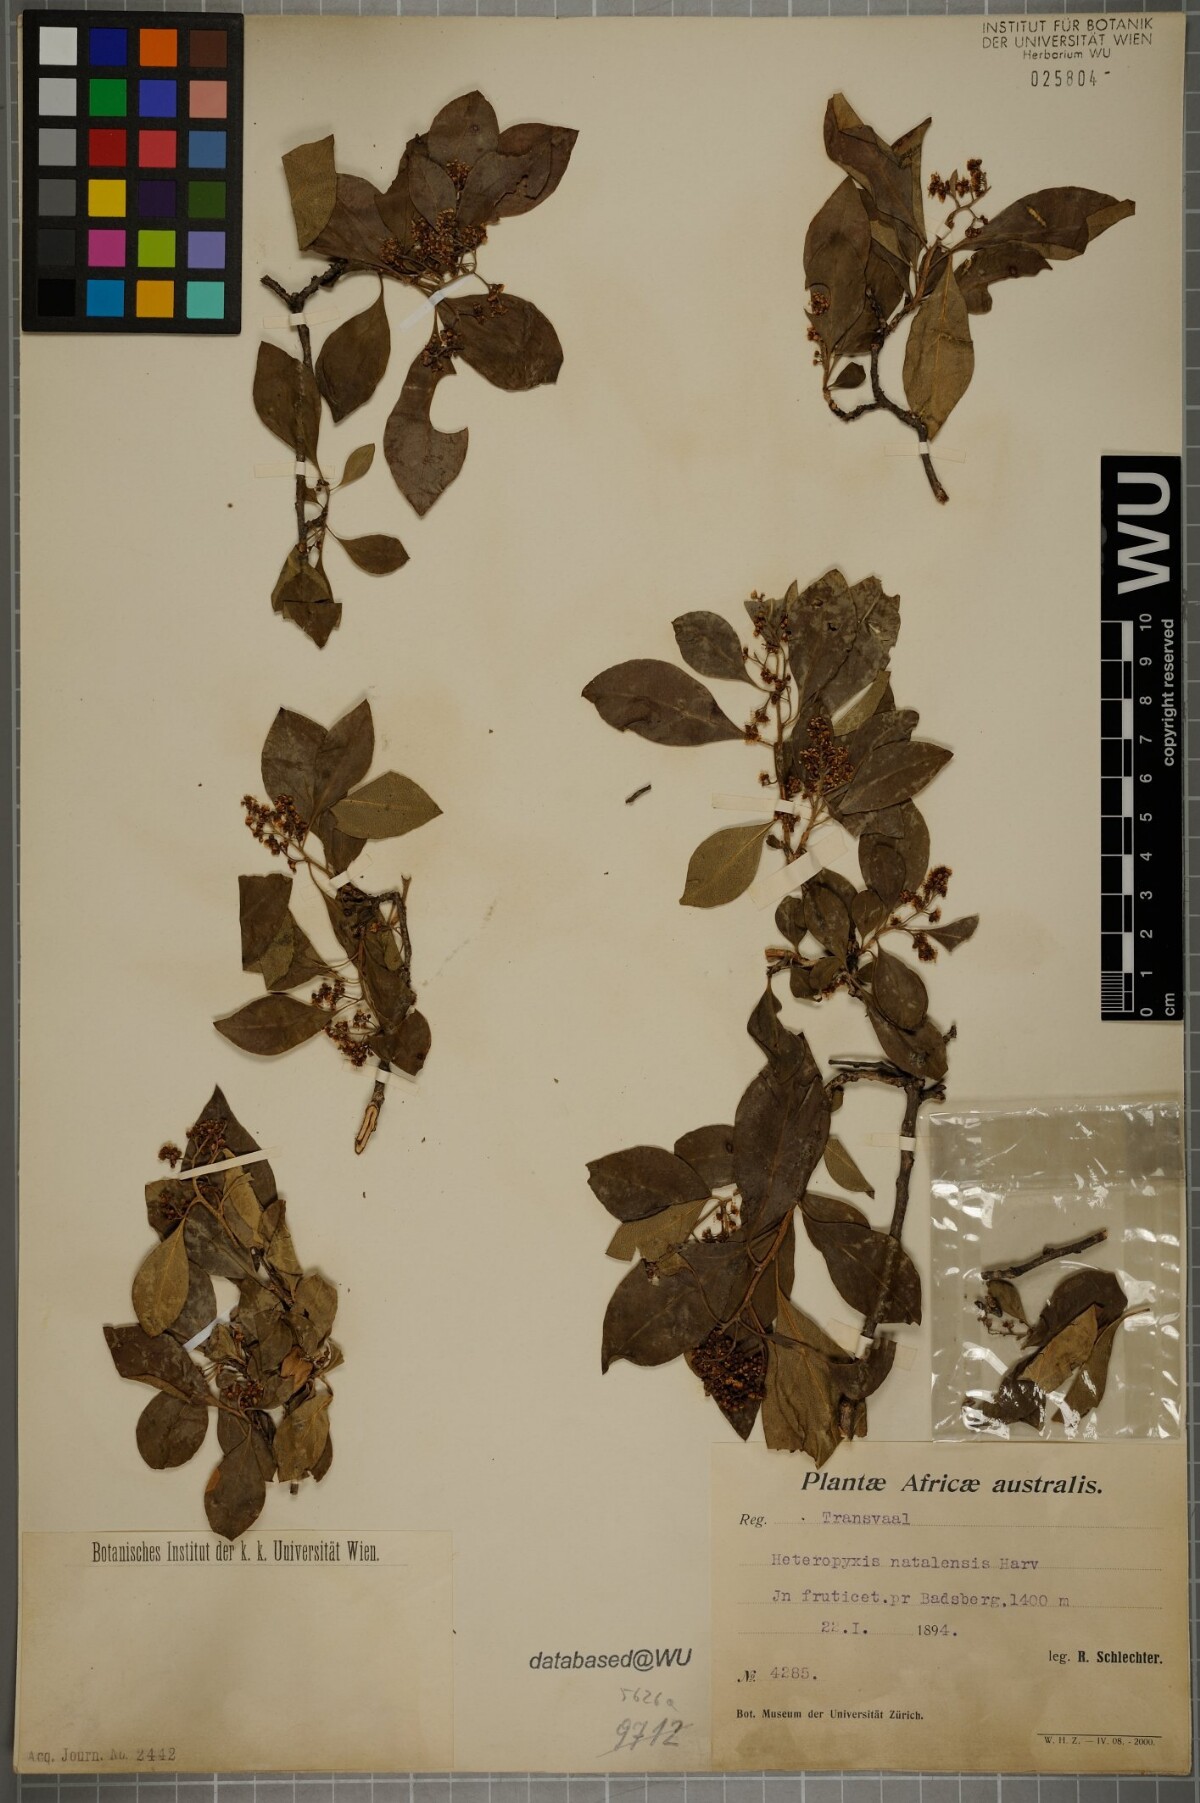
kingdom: Plantae
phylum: Tracheophyta
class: Magnoliopsida
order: Myrtales
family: Myrtaceae
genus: Heteropyxis
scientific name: Heteropyxis natalensis
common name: Lavender tree
